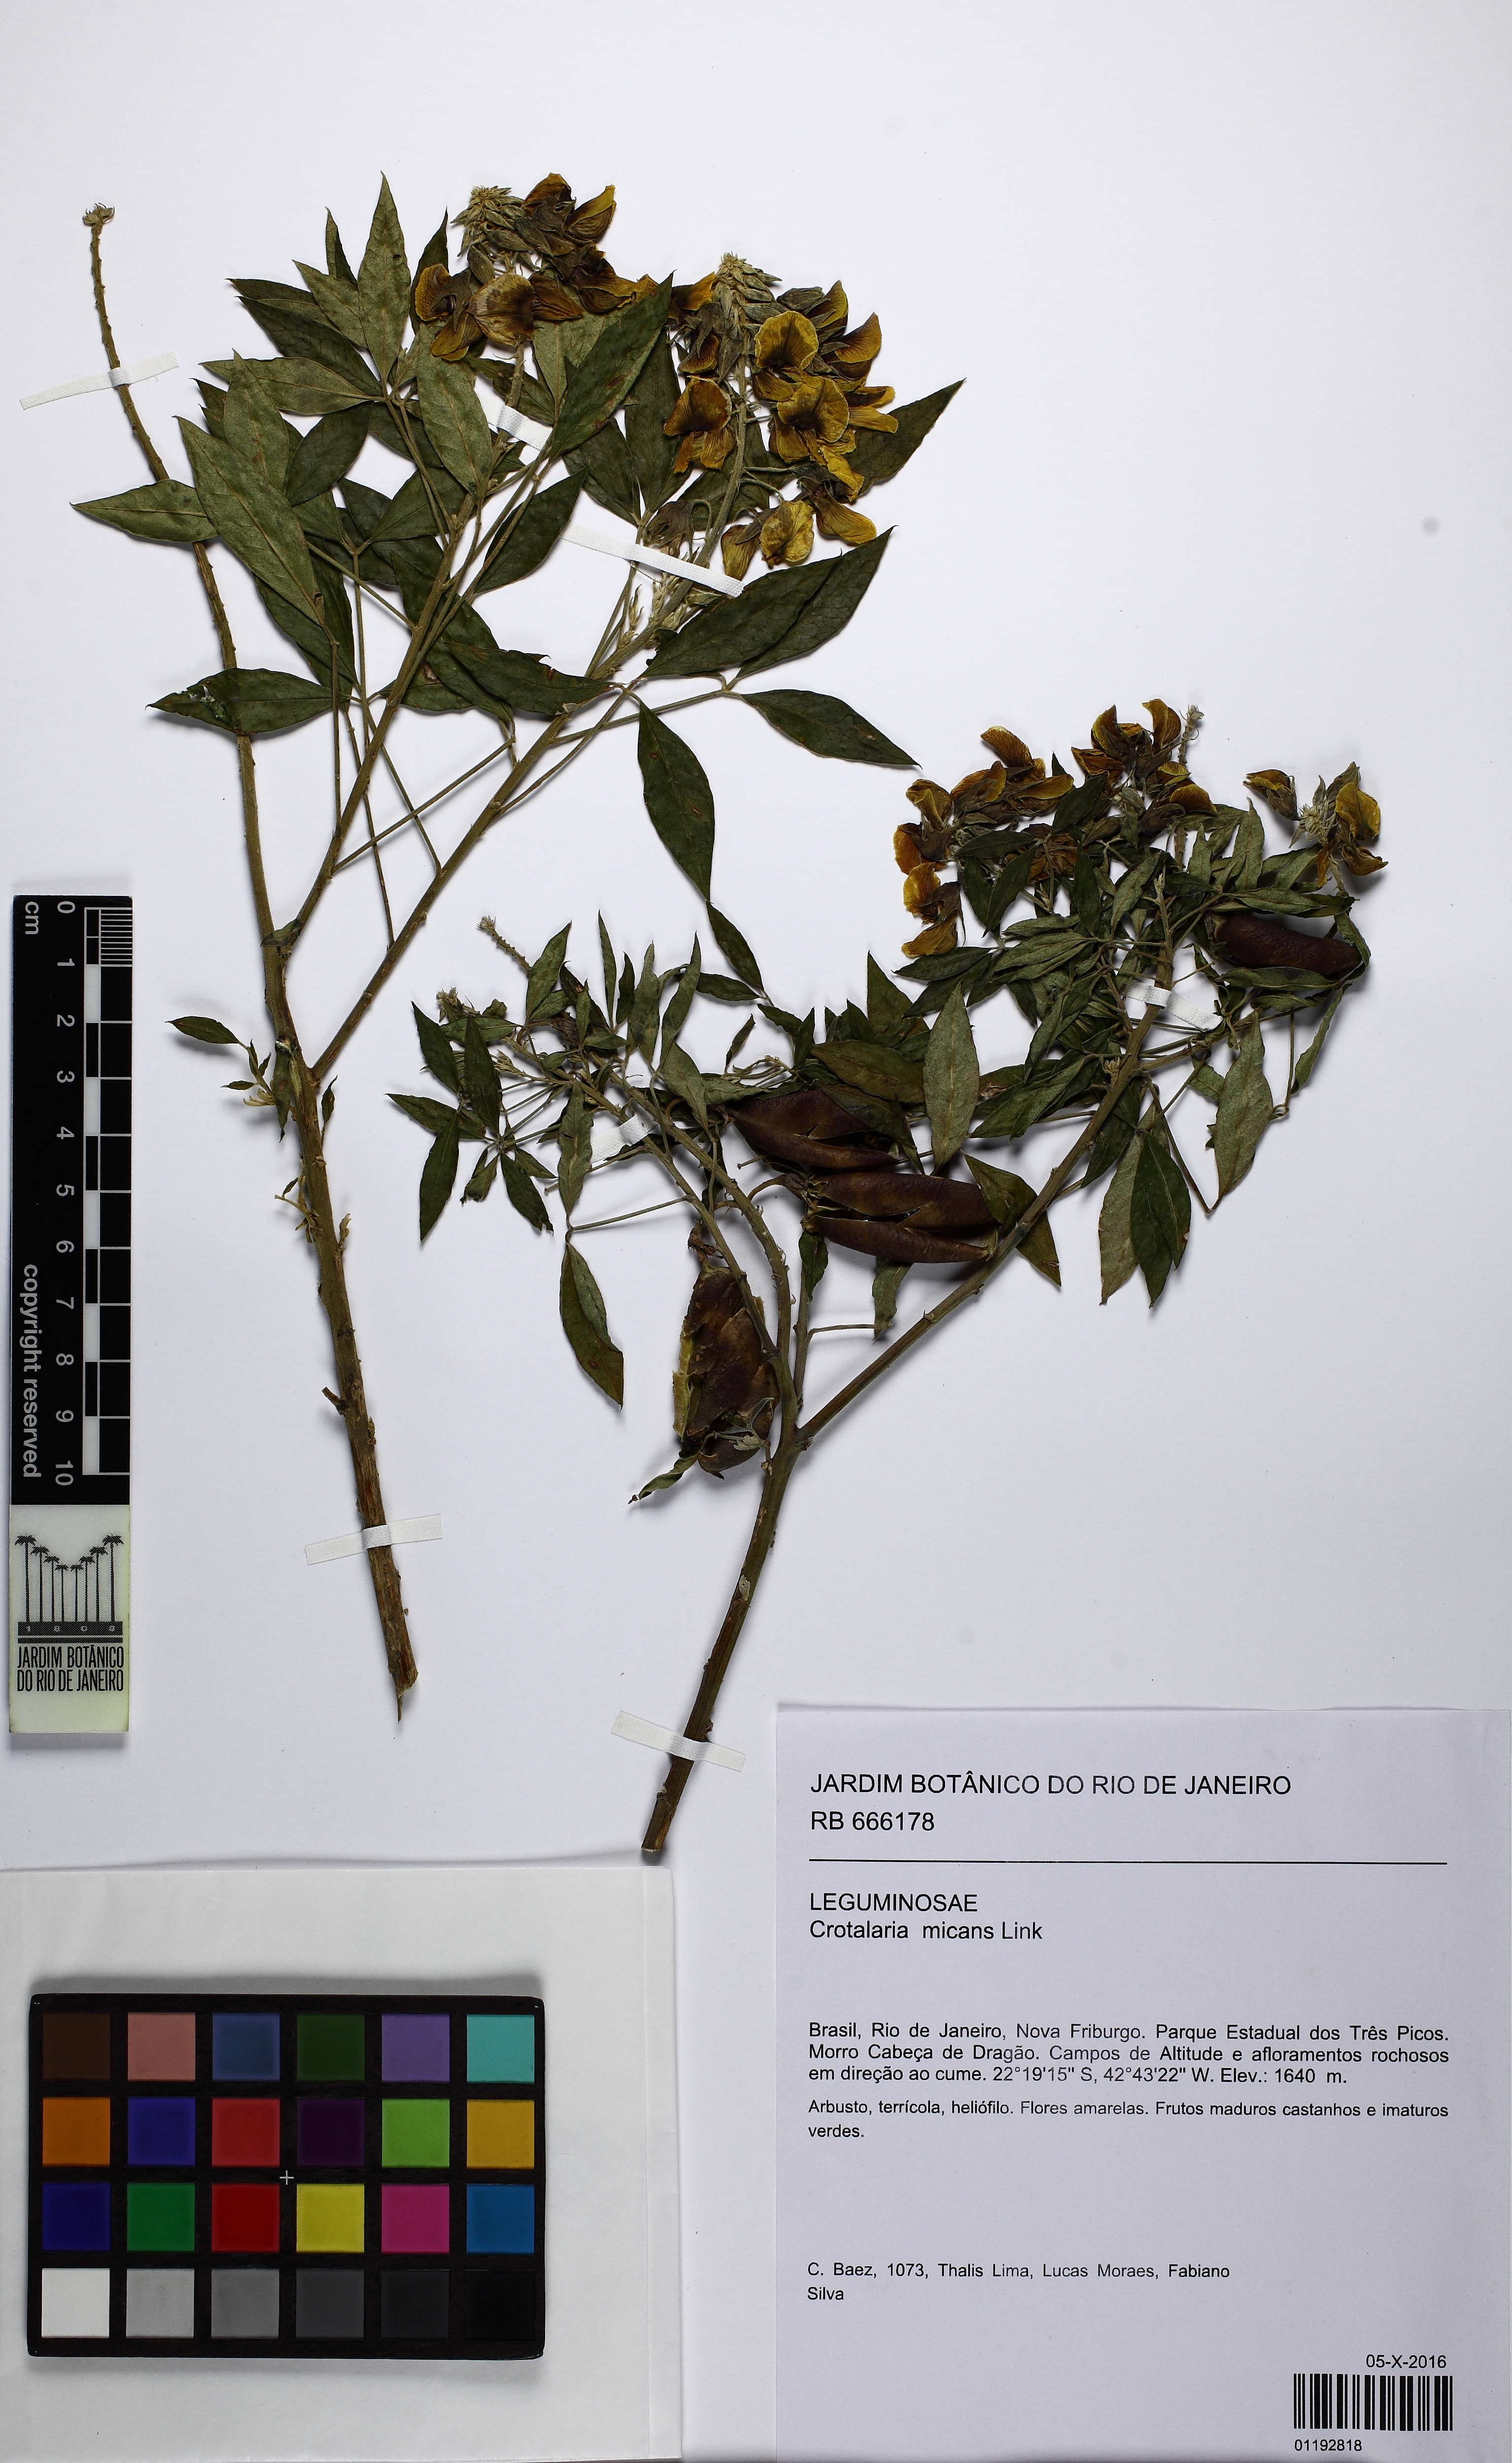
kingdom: Plantae
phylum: Tracheophyta
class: Magnoliopsida
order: Fabales
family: Fabaceae
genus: Crotalaria
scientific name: Crotalaria micans
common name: Caracas rattlebox
